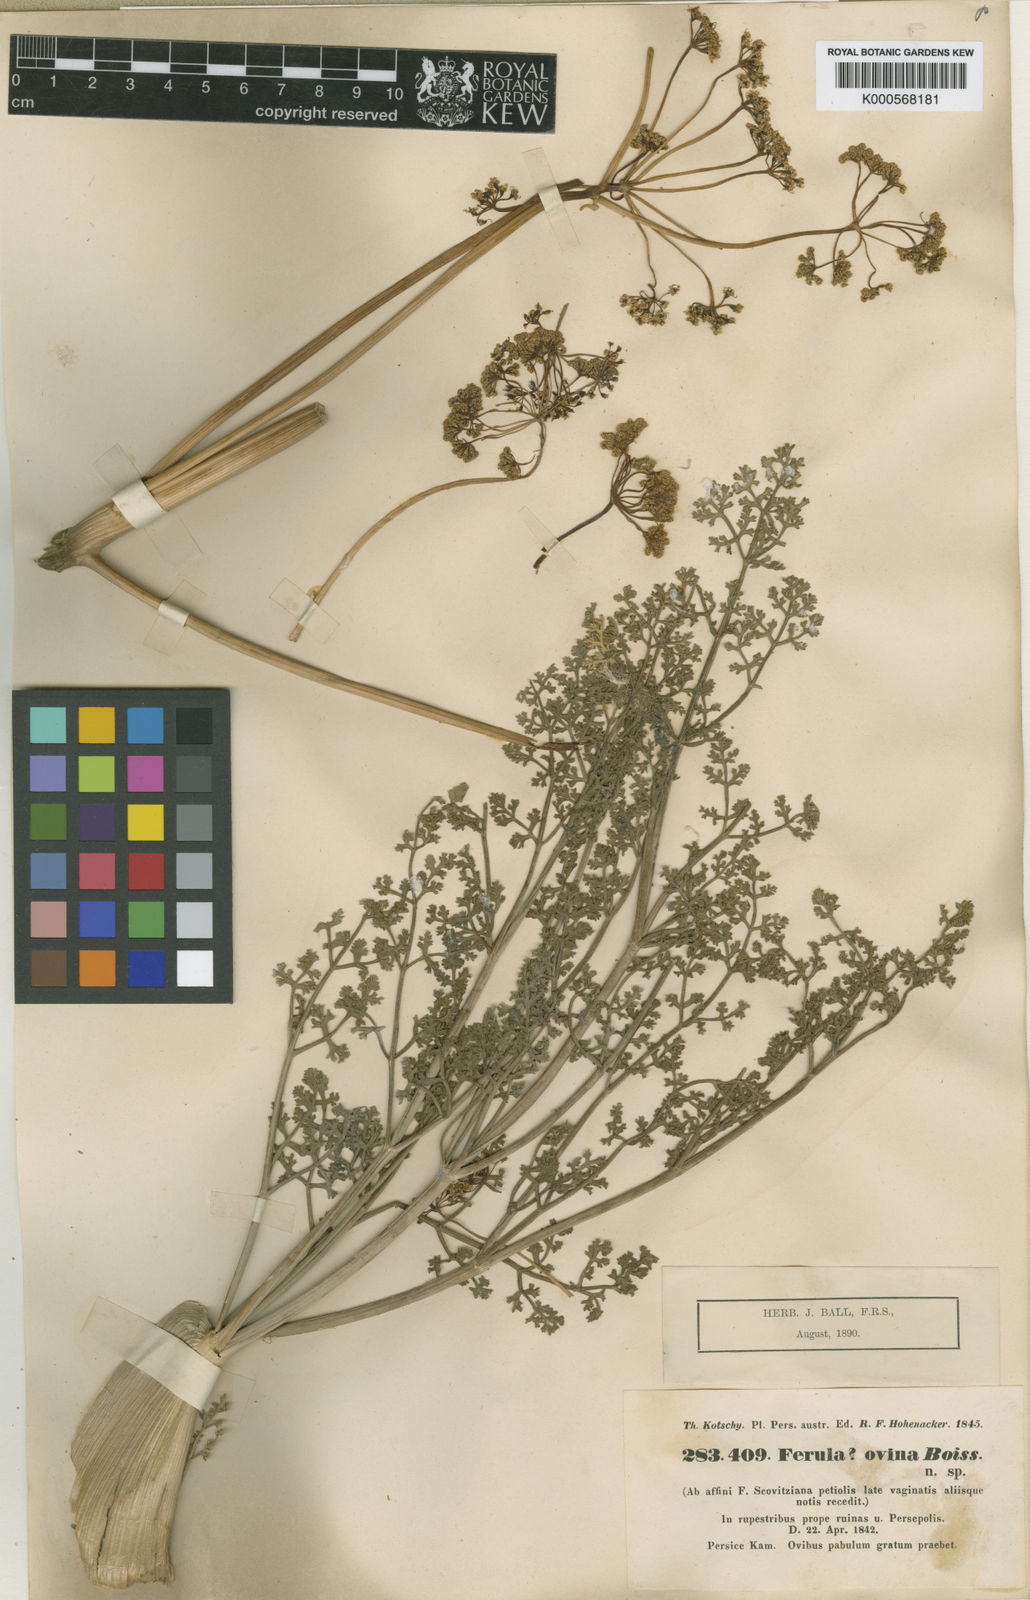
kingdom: Plantae
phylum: Tracheophyta
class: Magnoliopsida
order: Apiales
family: Apiaceae
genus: Ferula
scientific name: Ferula ovina
